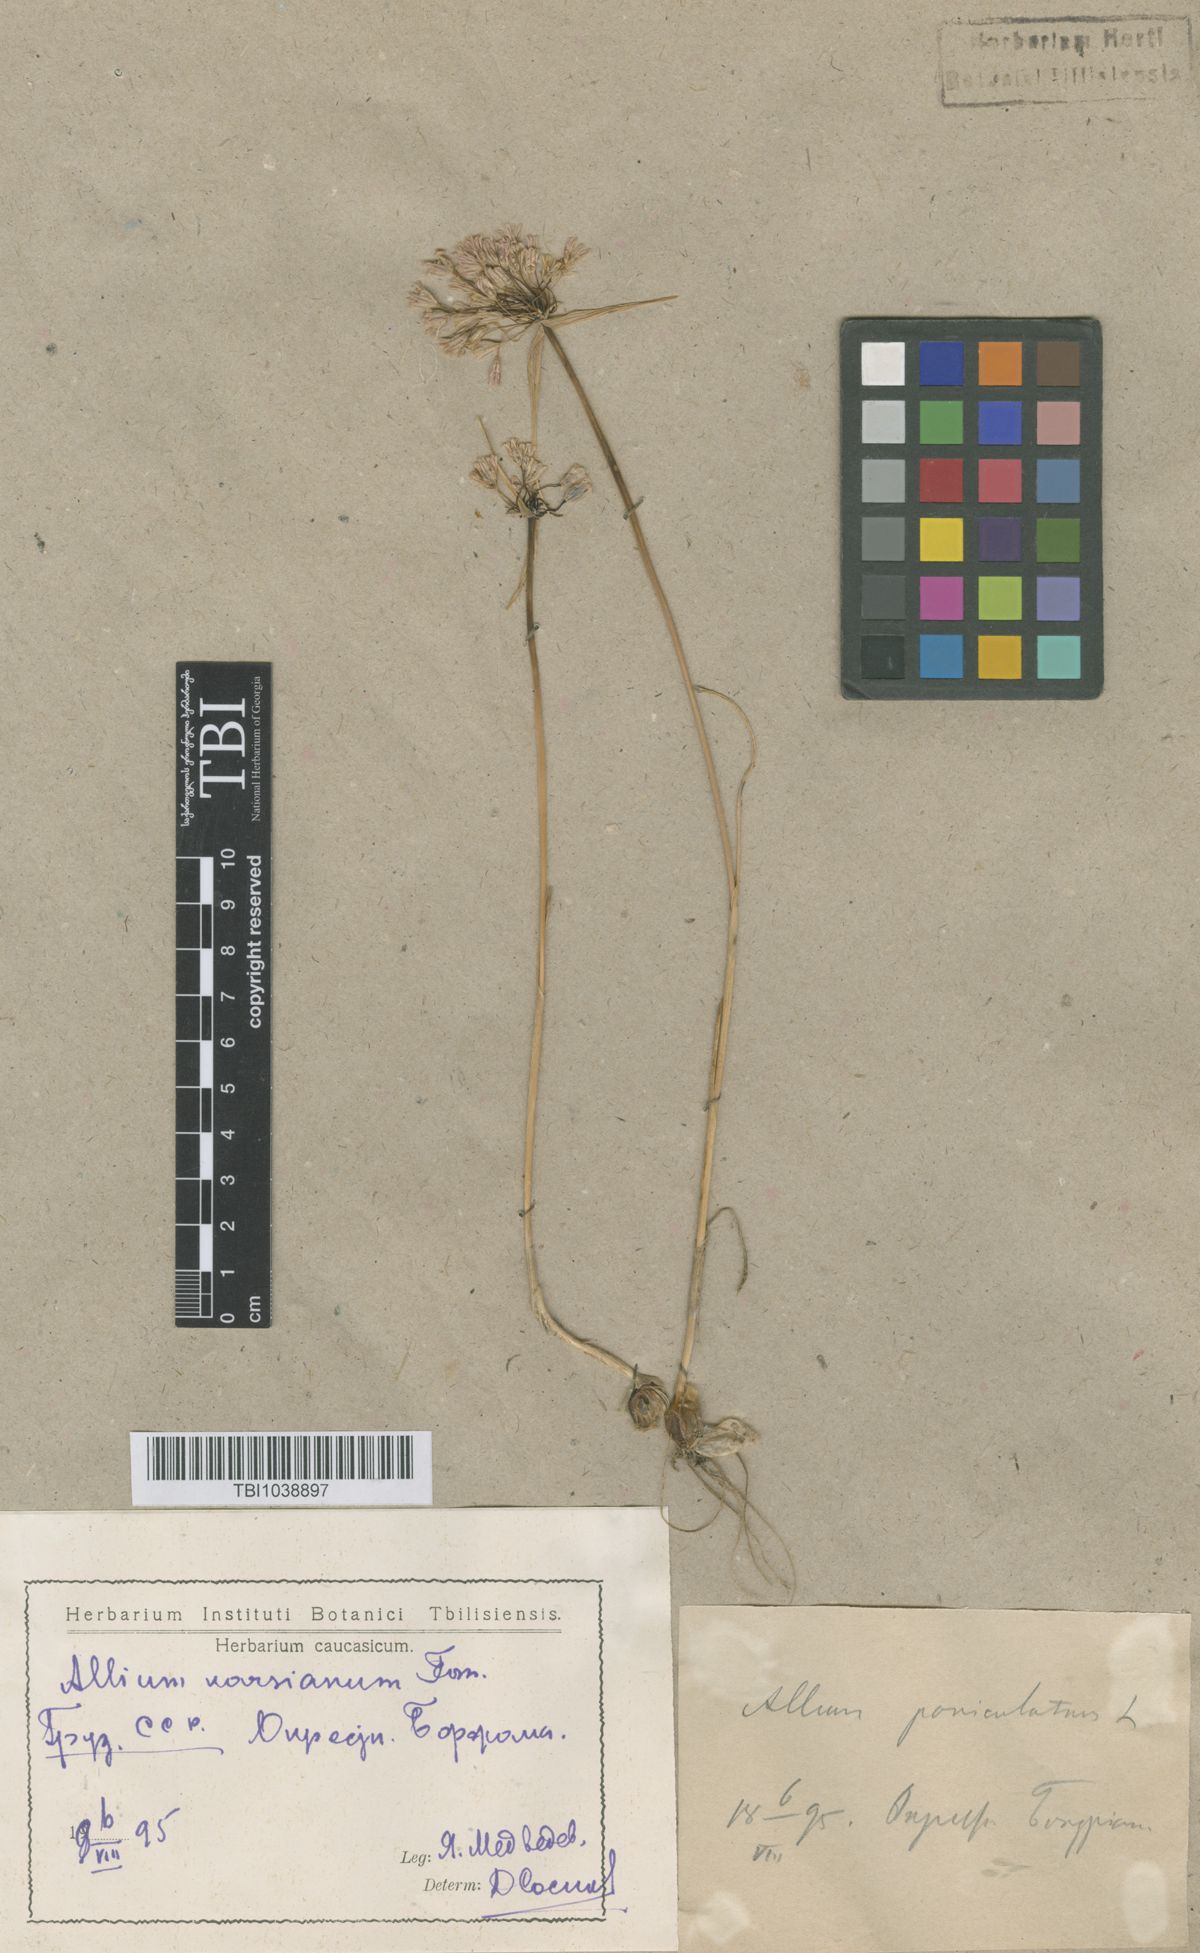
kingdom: Plantae
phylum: Tracheophyta
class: Liliopsida
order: Asparagales
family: Amaryllidaceae
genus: Allium
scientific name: Allium paniculatum
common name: Pale garlic
